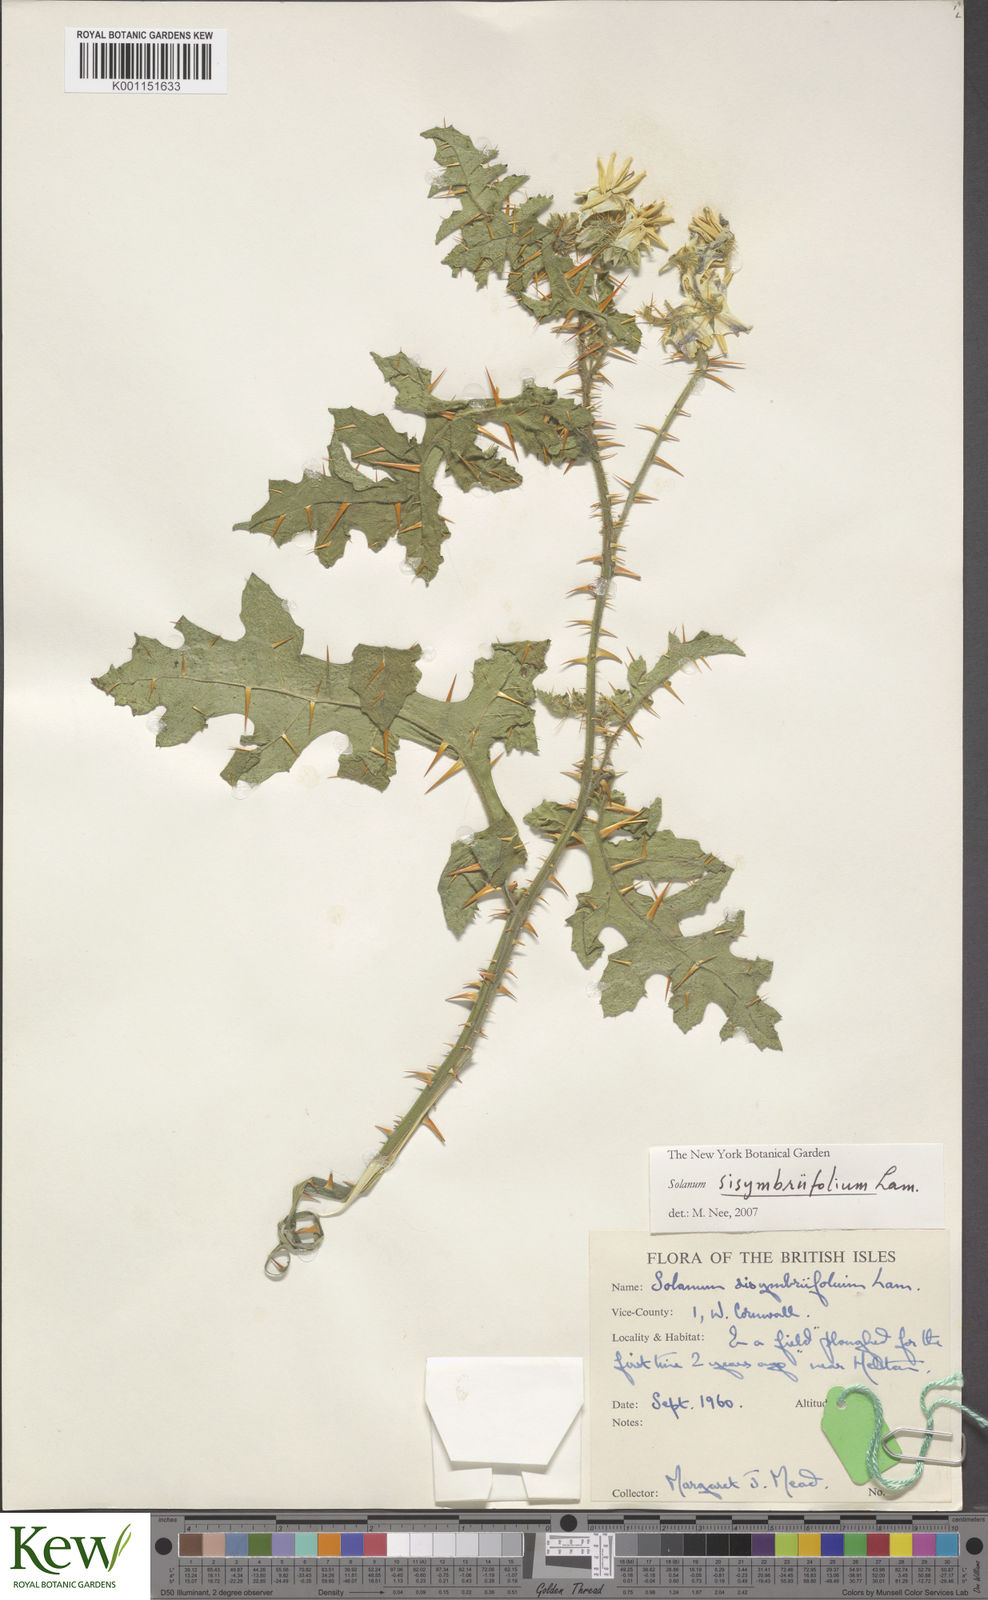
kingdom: Plantae
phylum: Tracheophyta
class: Magnoliopsida
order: Solanales
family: Solanaceae
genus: Solanum
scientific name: Solanum sisymbriifolium
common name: Red buffalo-bur
